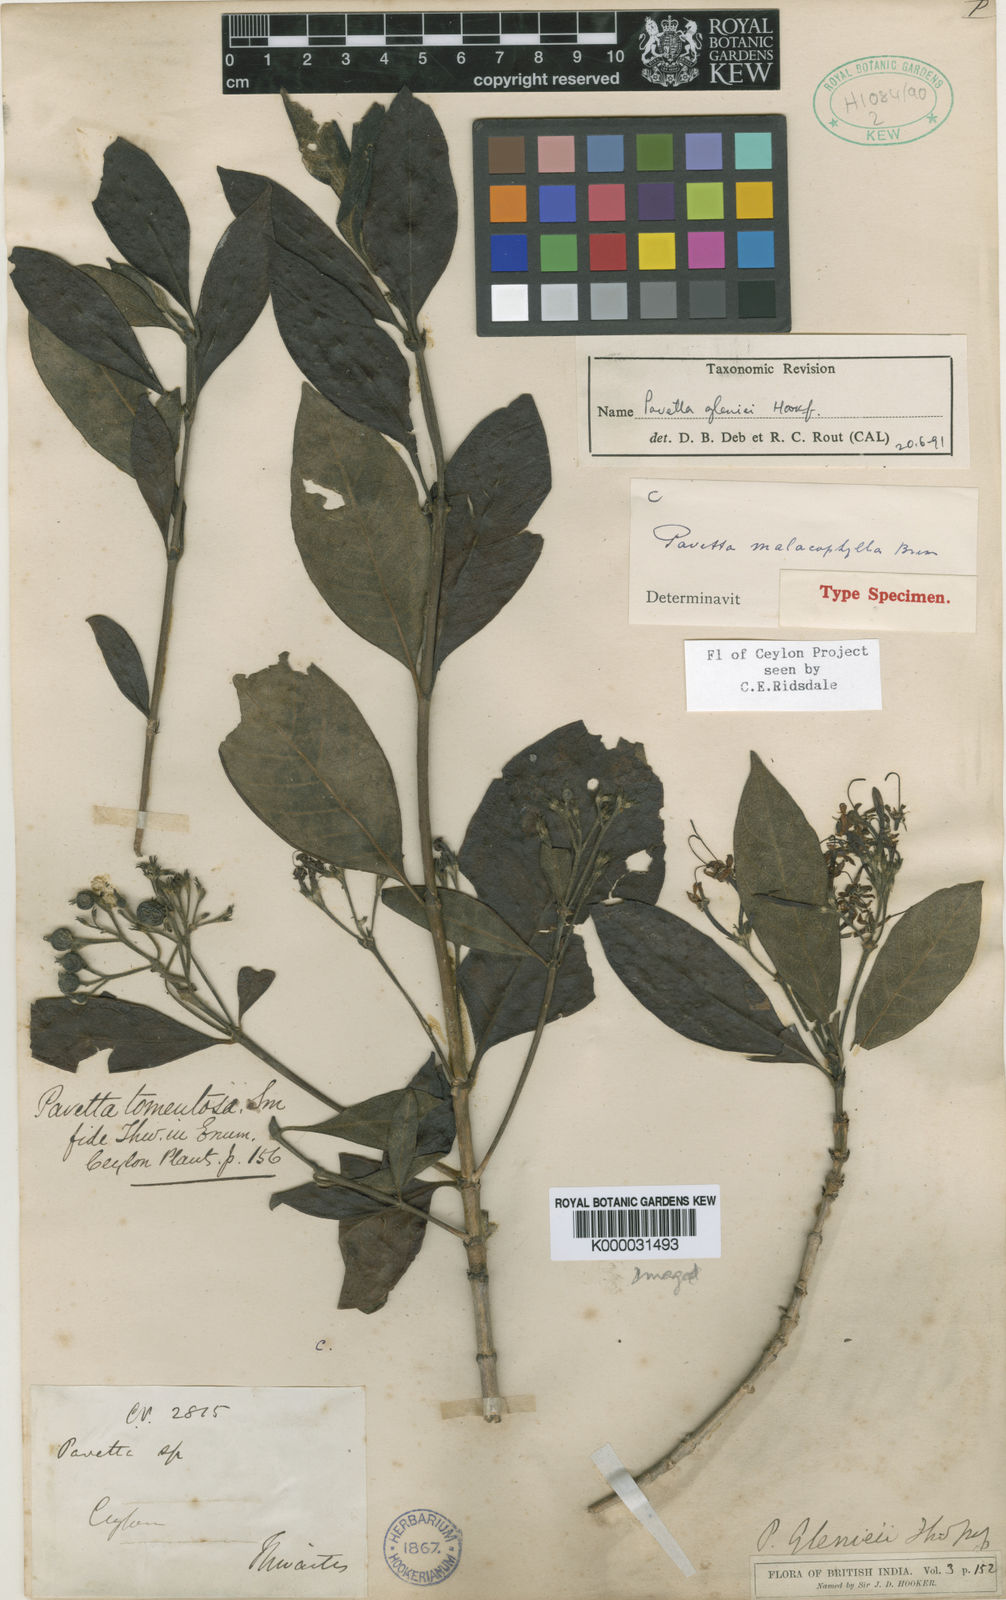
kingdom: Plantae
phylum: Tracheophyta
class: Magnoliopsida
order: Gentianales
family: Rubiaceae
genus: Pavetta
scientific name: Pavetta gleniei
